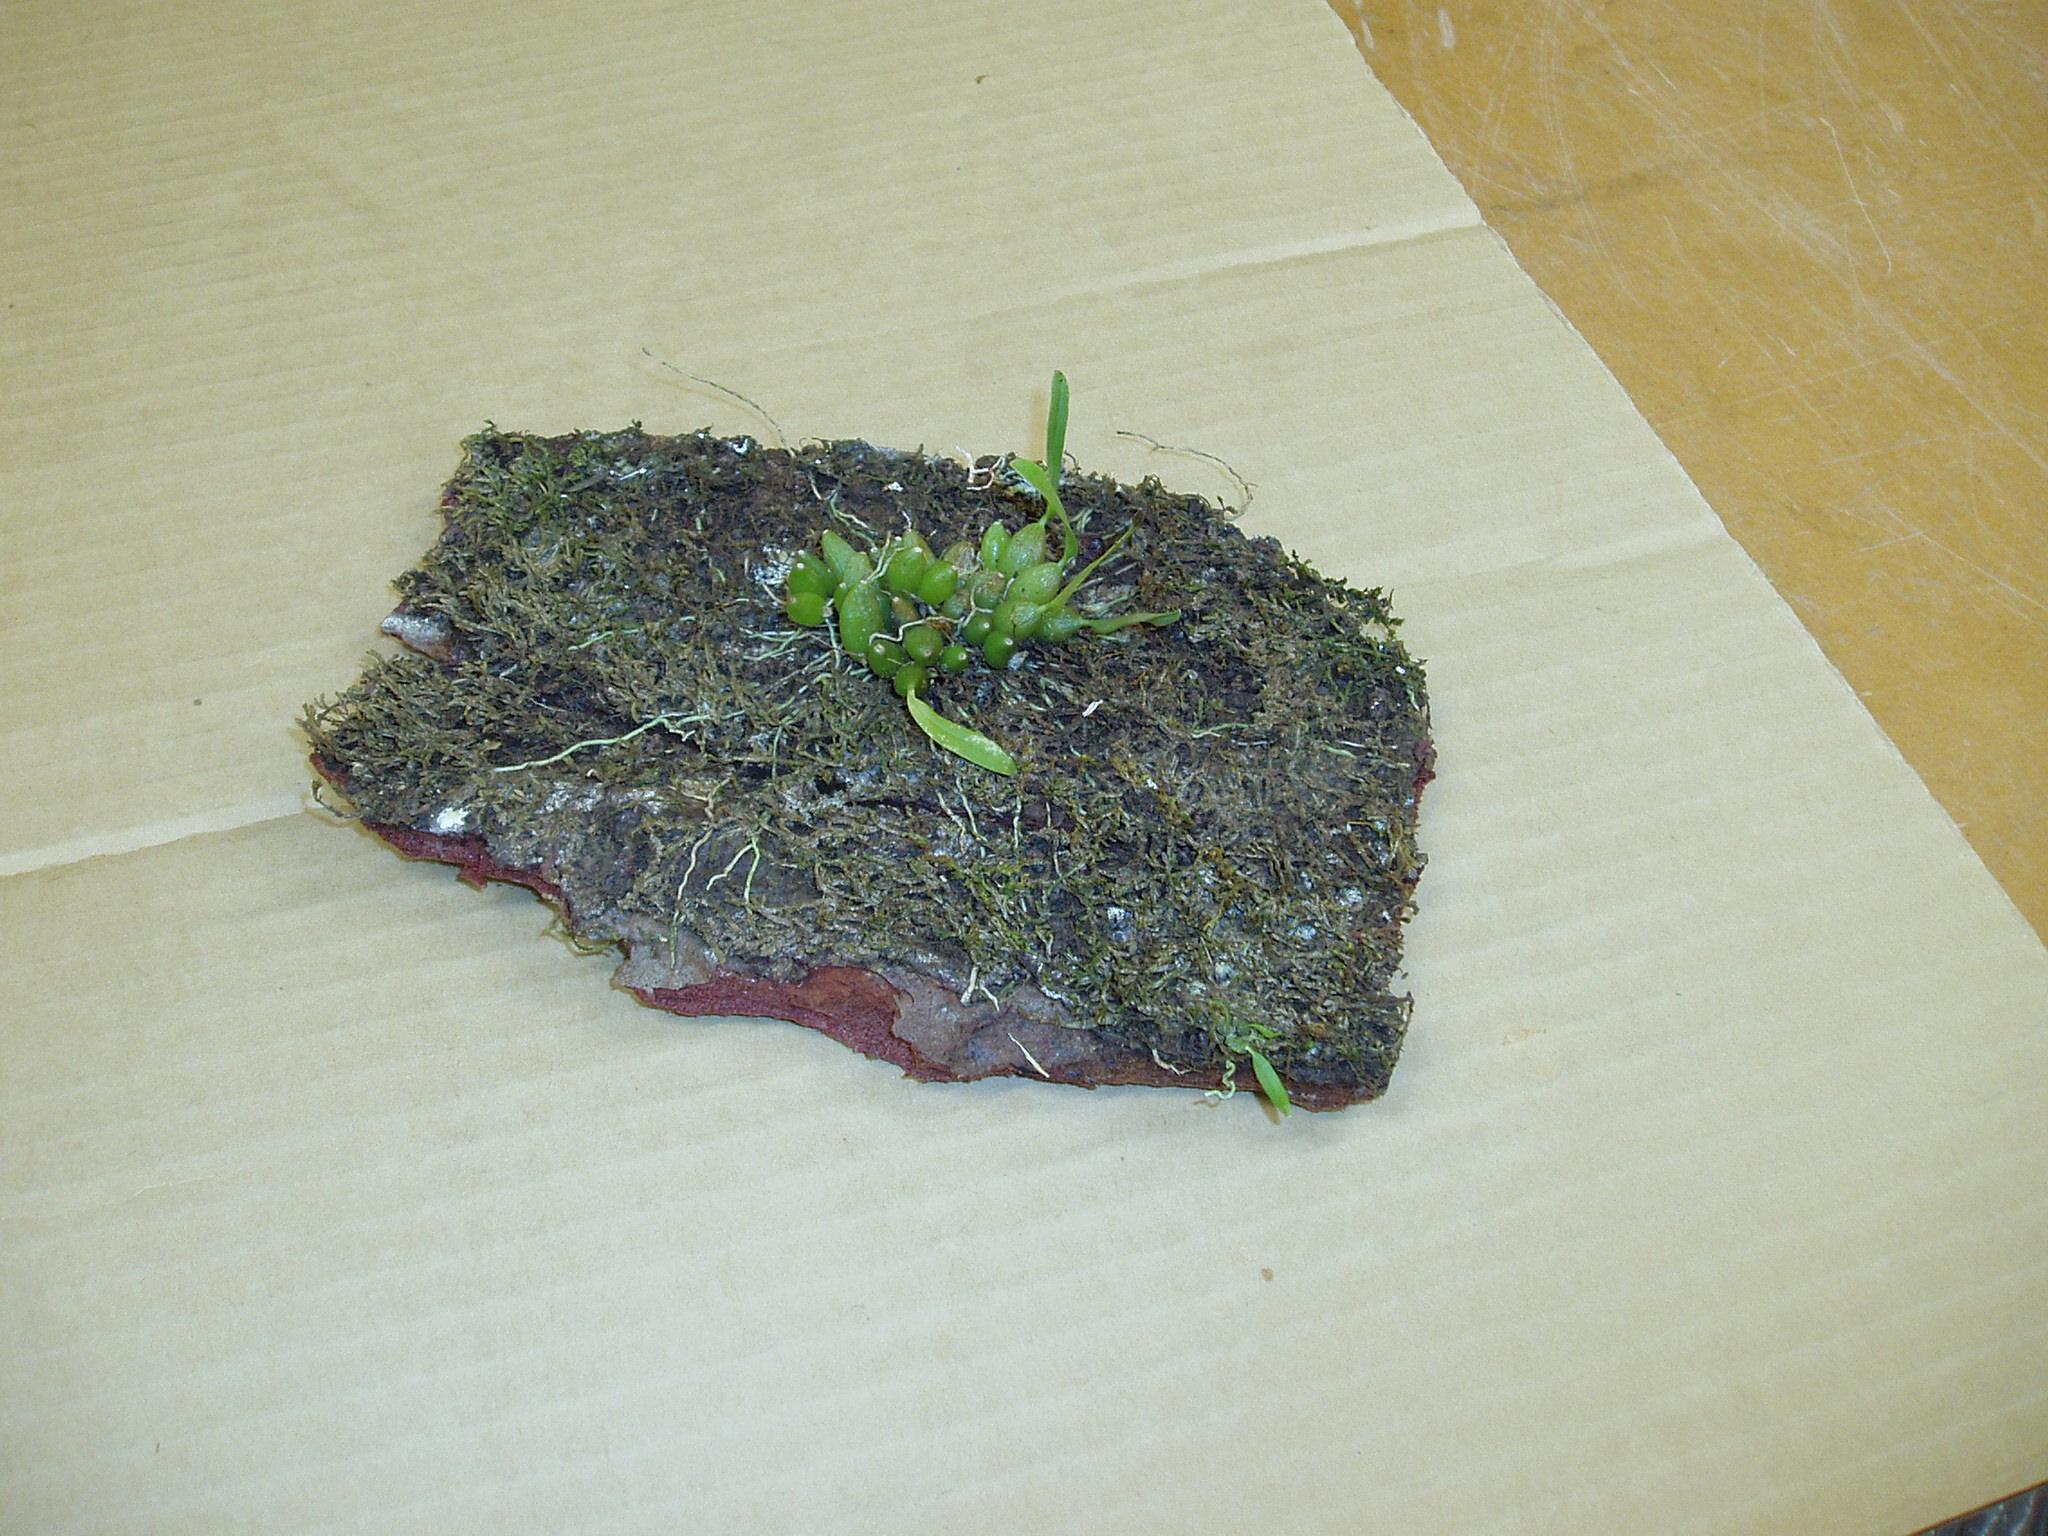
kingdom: Plantae
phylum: Tracheophyta
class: Liliopsida
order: Asparagales
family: Orchidaceae
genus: Bulbophyllum
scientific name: Bulbophyllum tuberculatum
